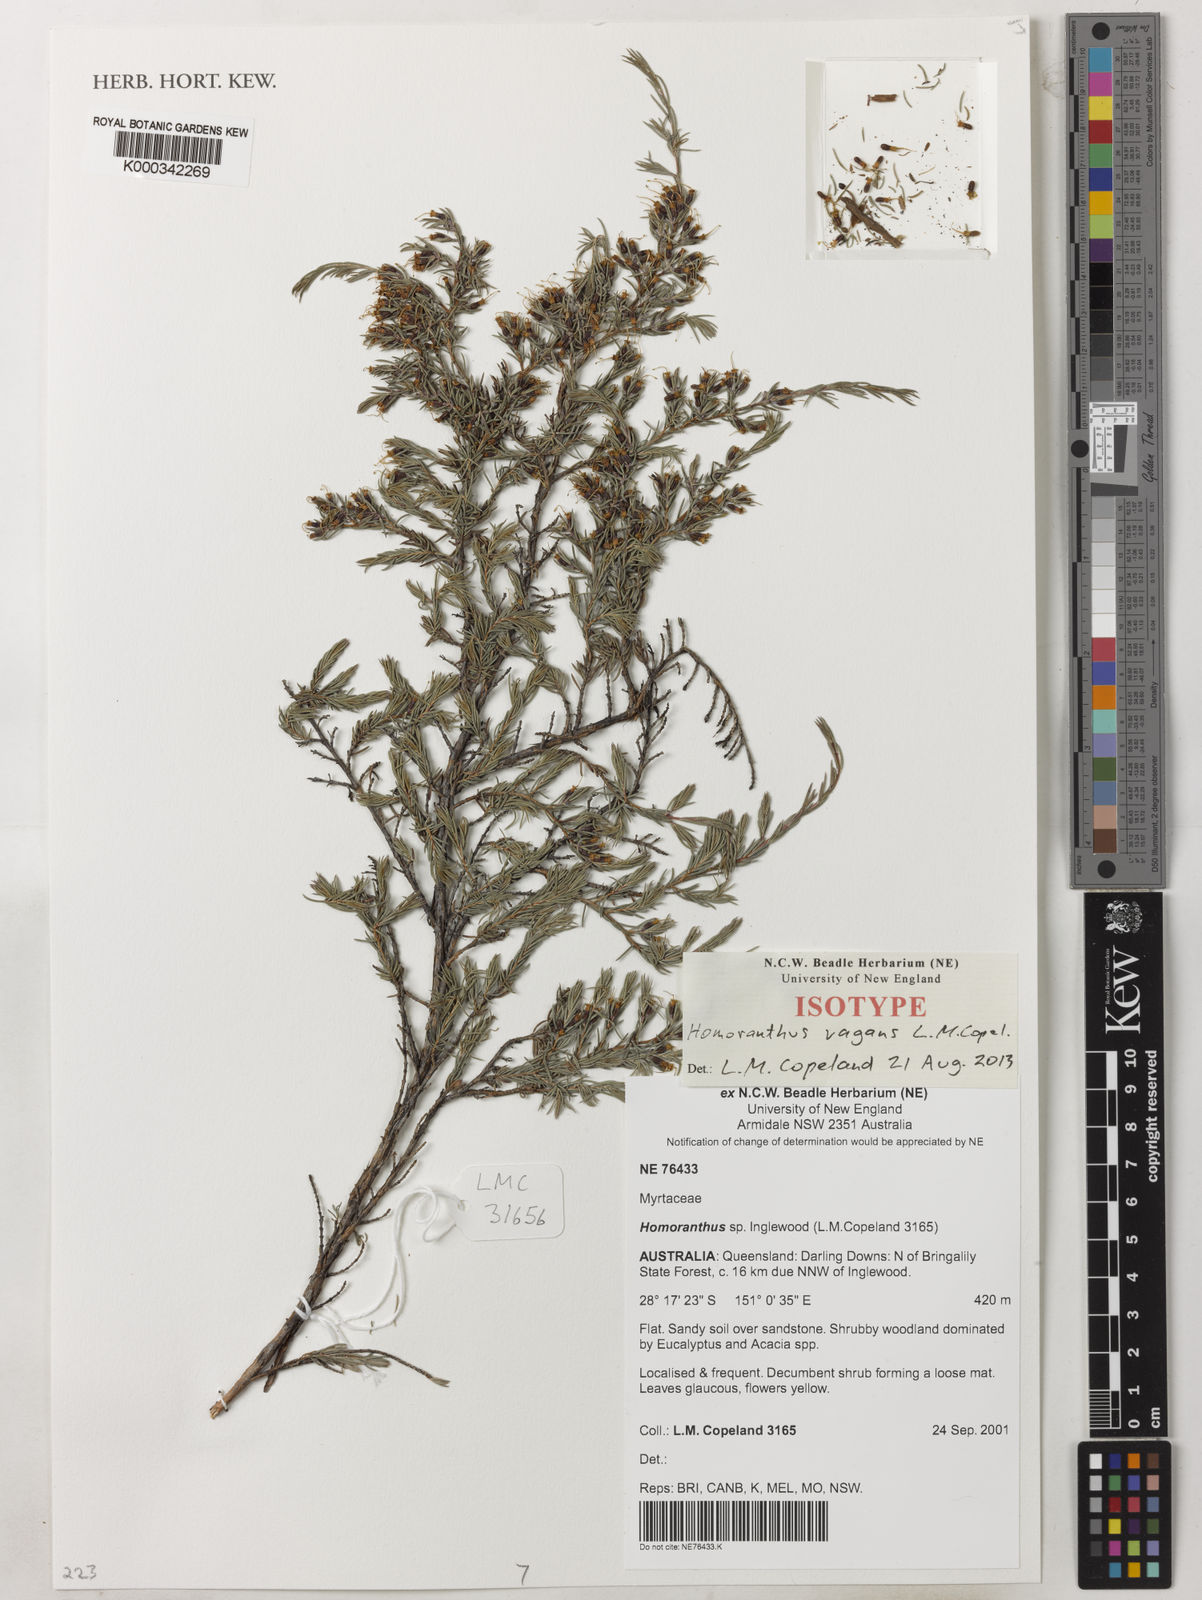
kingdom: Plantae
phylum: Tracheophyta
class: Magnoliopsida
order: Myrtales
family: Myrtaceae
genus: Homoranthus
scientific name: Homoranthus vagans
